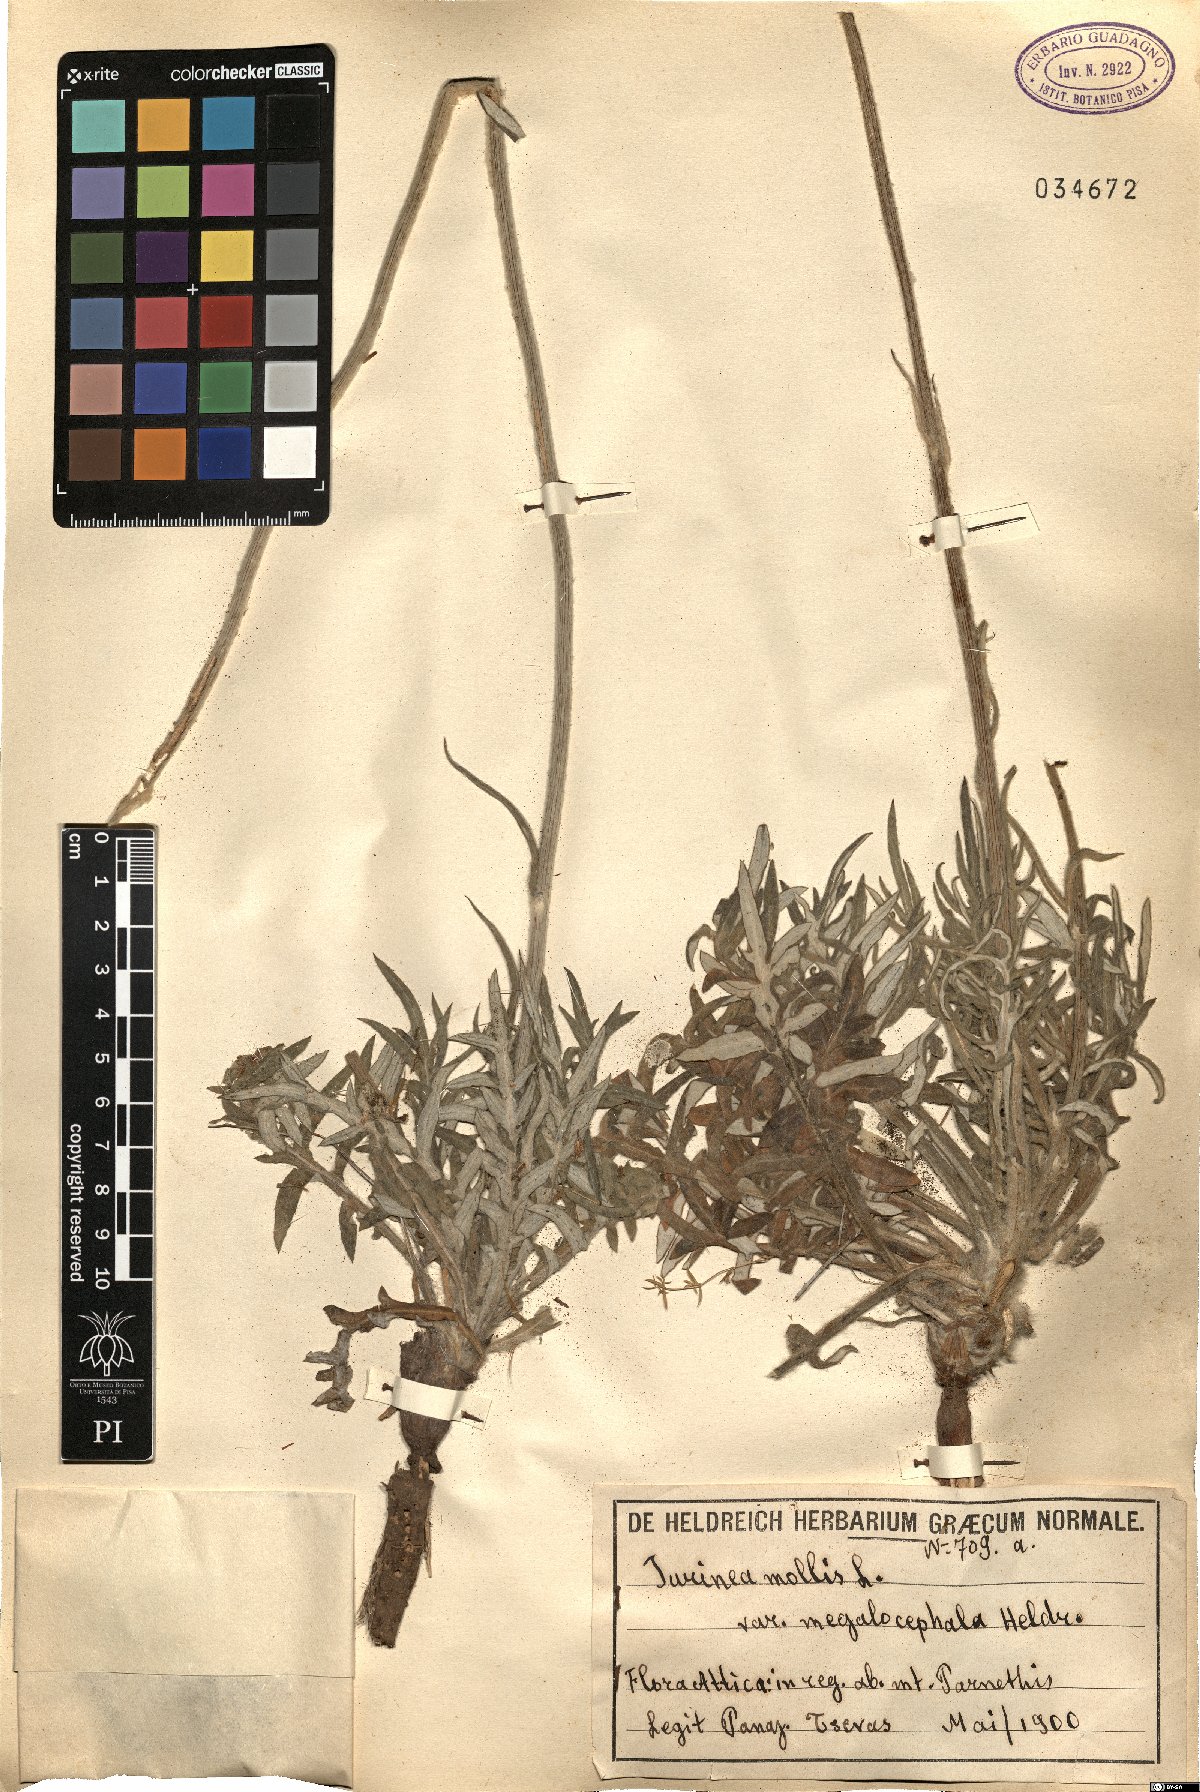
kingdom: Plantae
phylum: Tracheophyta
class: Magnoliopsida
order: Asterales
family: Asteraceae
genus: Jurinea
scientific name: Jurinea mollis
